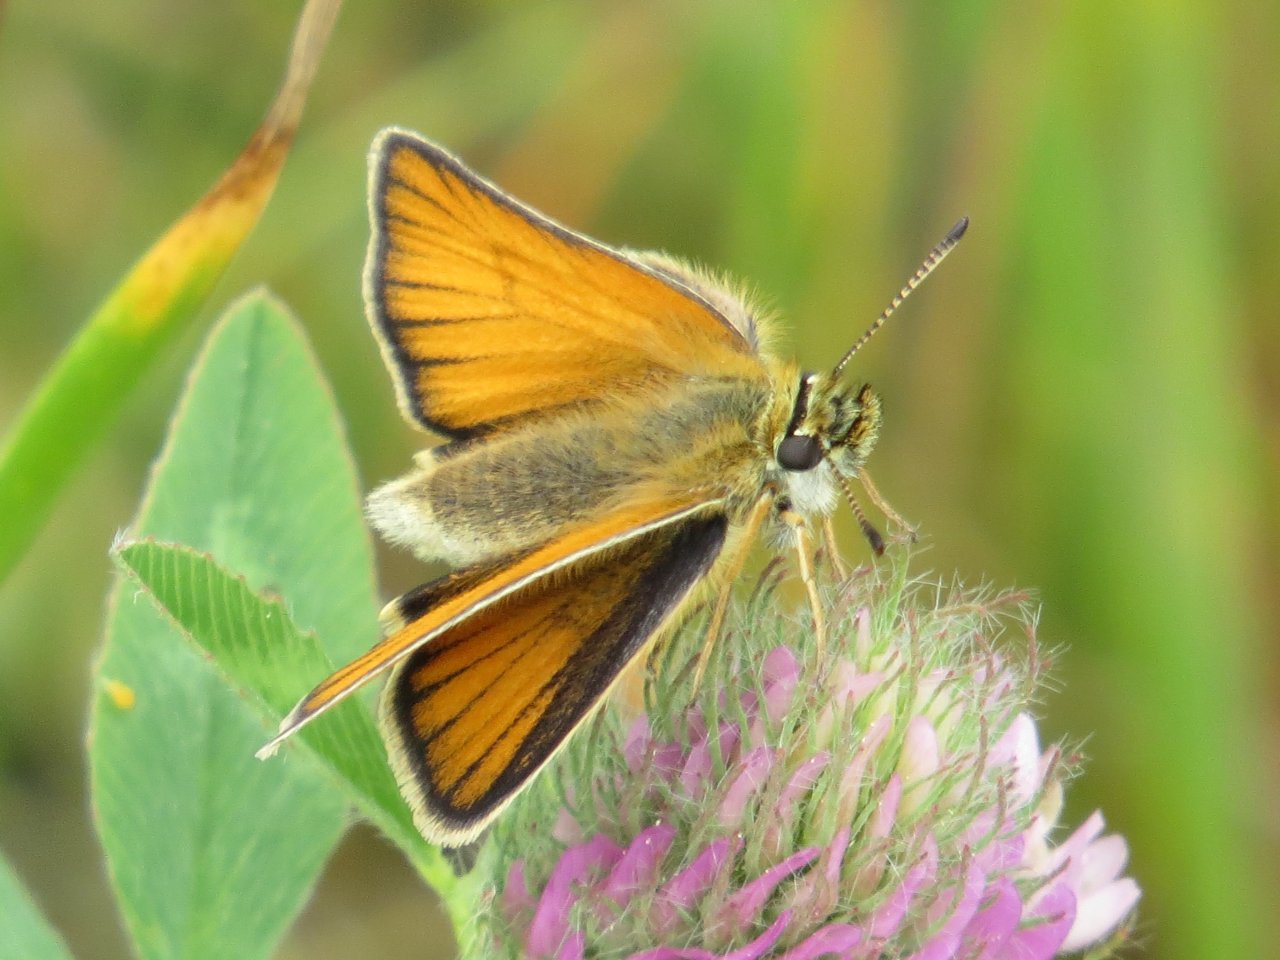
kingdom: Animalia
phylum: Arthropoda
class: Insecta
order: Lepidoptera
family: Hesperiidae
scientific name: Hesperiidae
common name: Skippers
